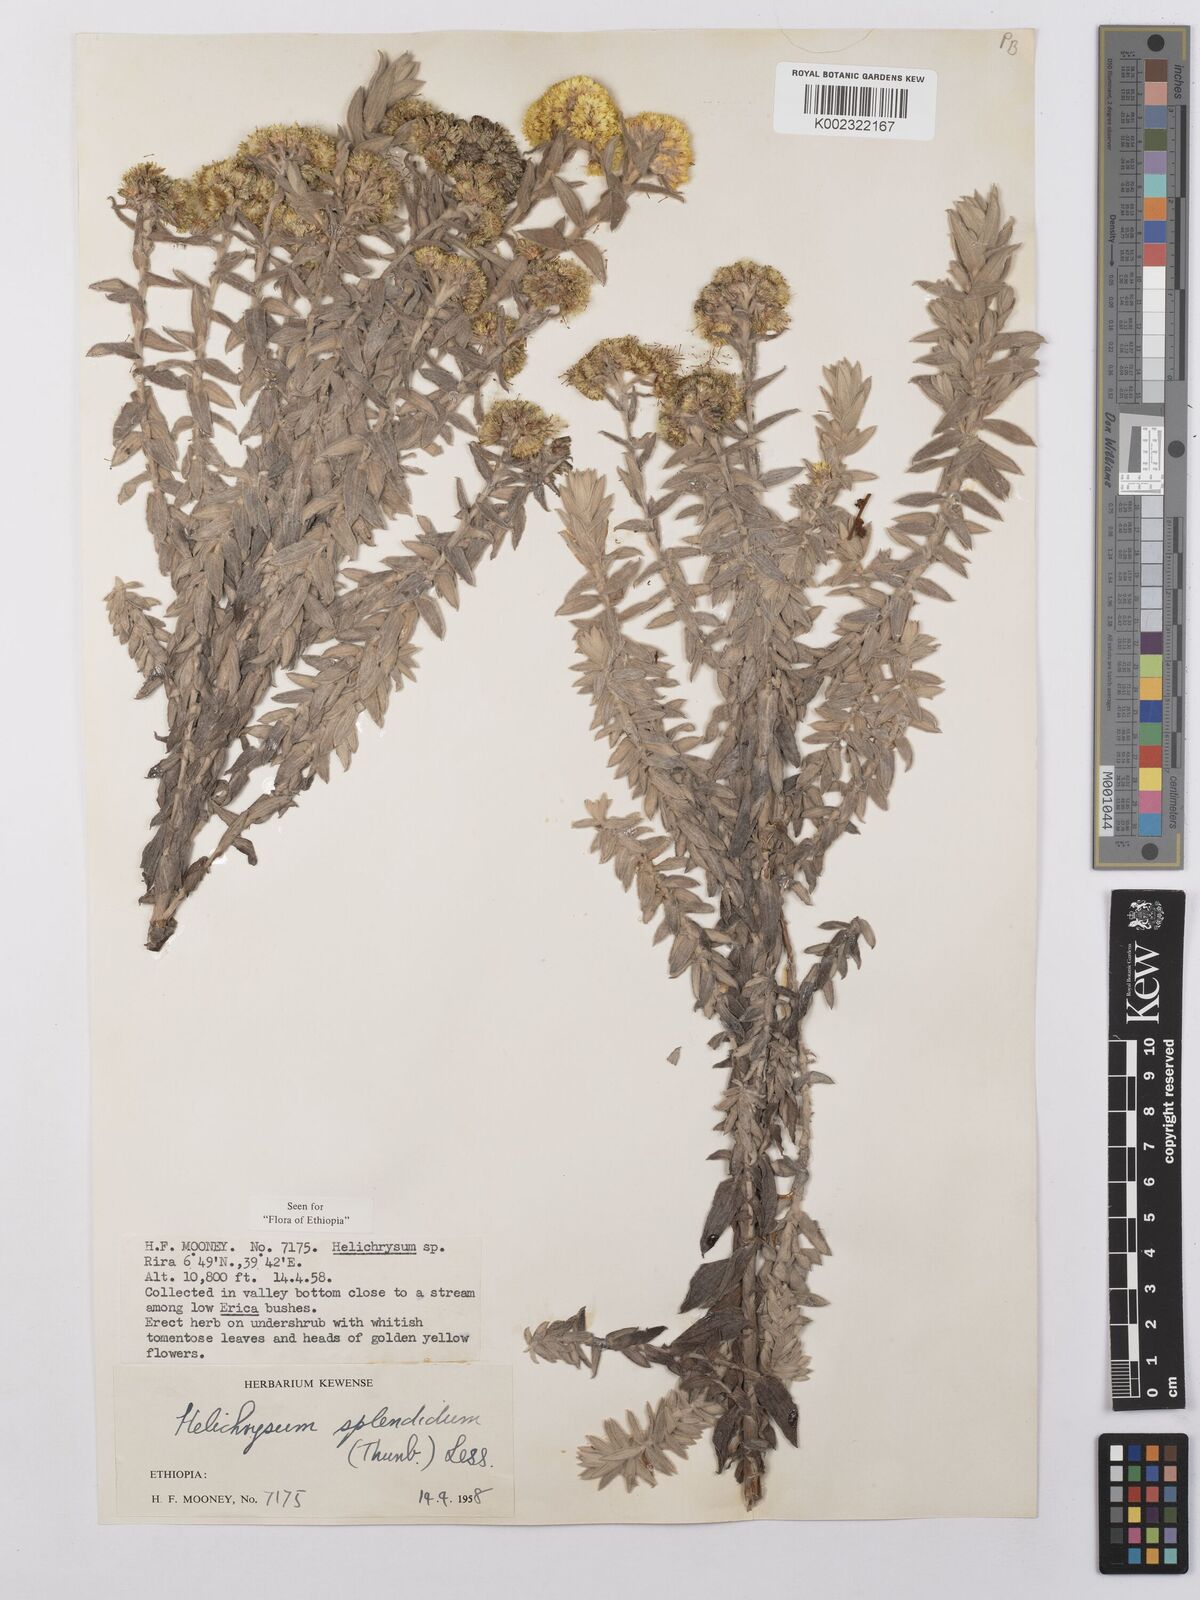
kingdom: Plantae
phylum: Tracheophyta
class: Magnoliopsida
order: Asterales
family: Asteraceae
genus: Helichrysum
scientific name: Helichrysum splendidum
